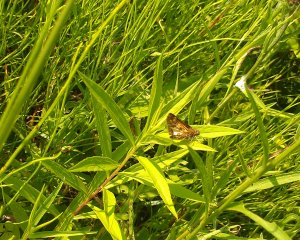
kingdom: Animalia
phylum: Arthropoda
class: Insecta
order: Lepidoptera
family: Hesperiidae
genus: Polites
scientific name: Polites coras
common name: Peck's Skipper
